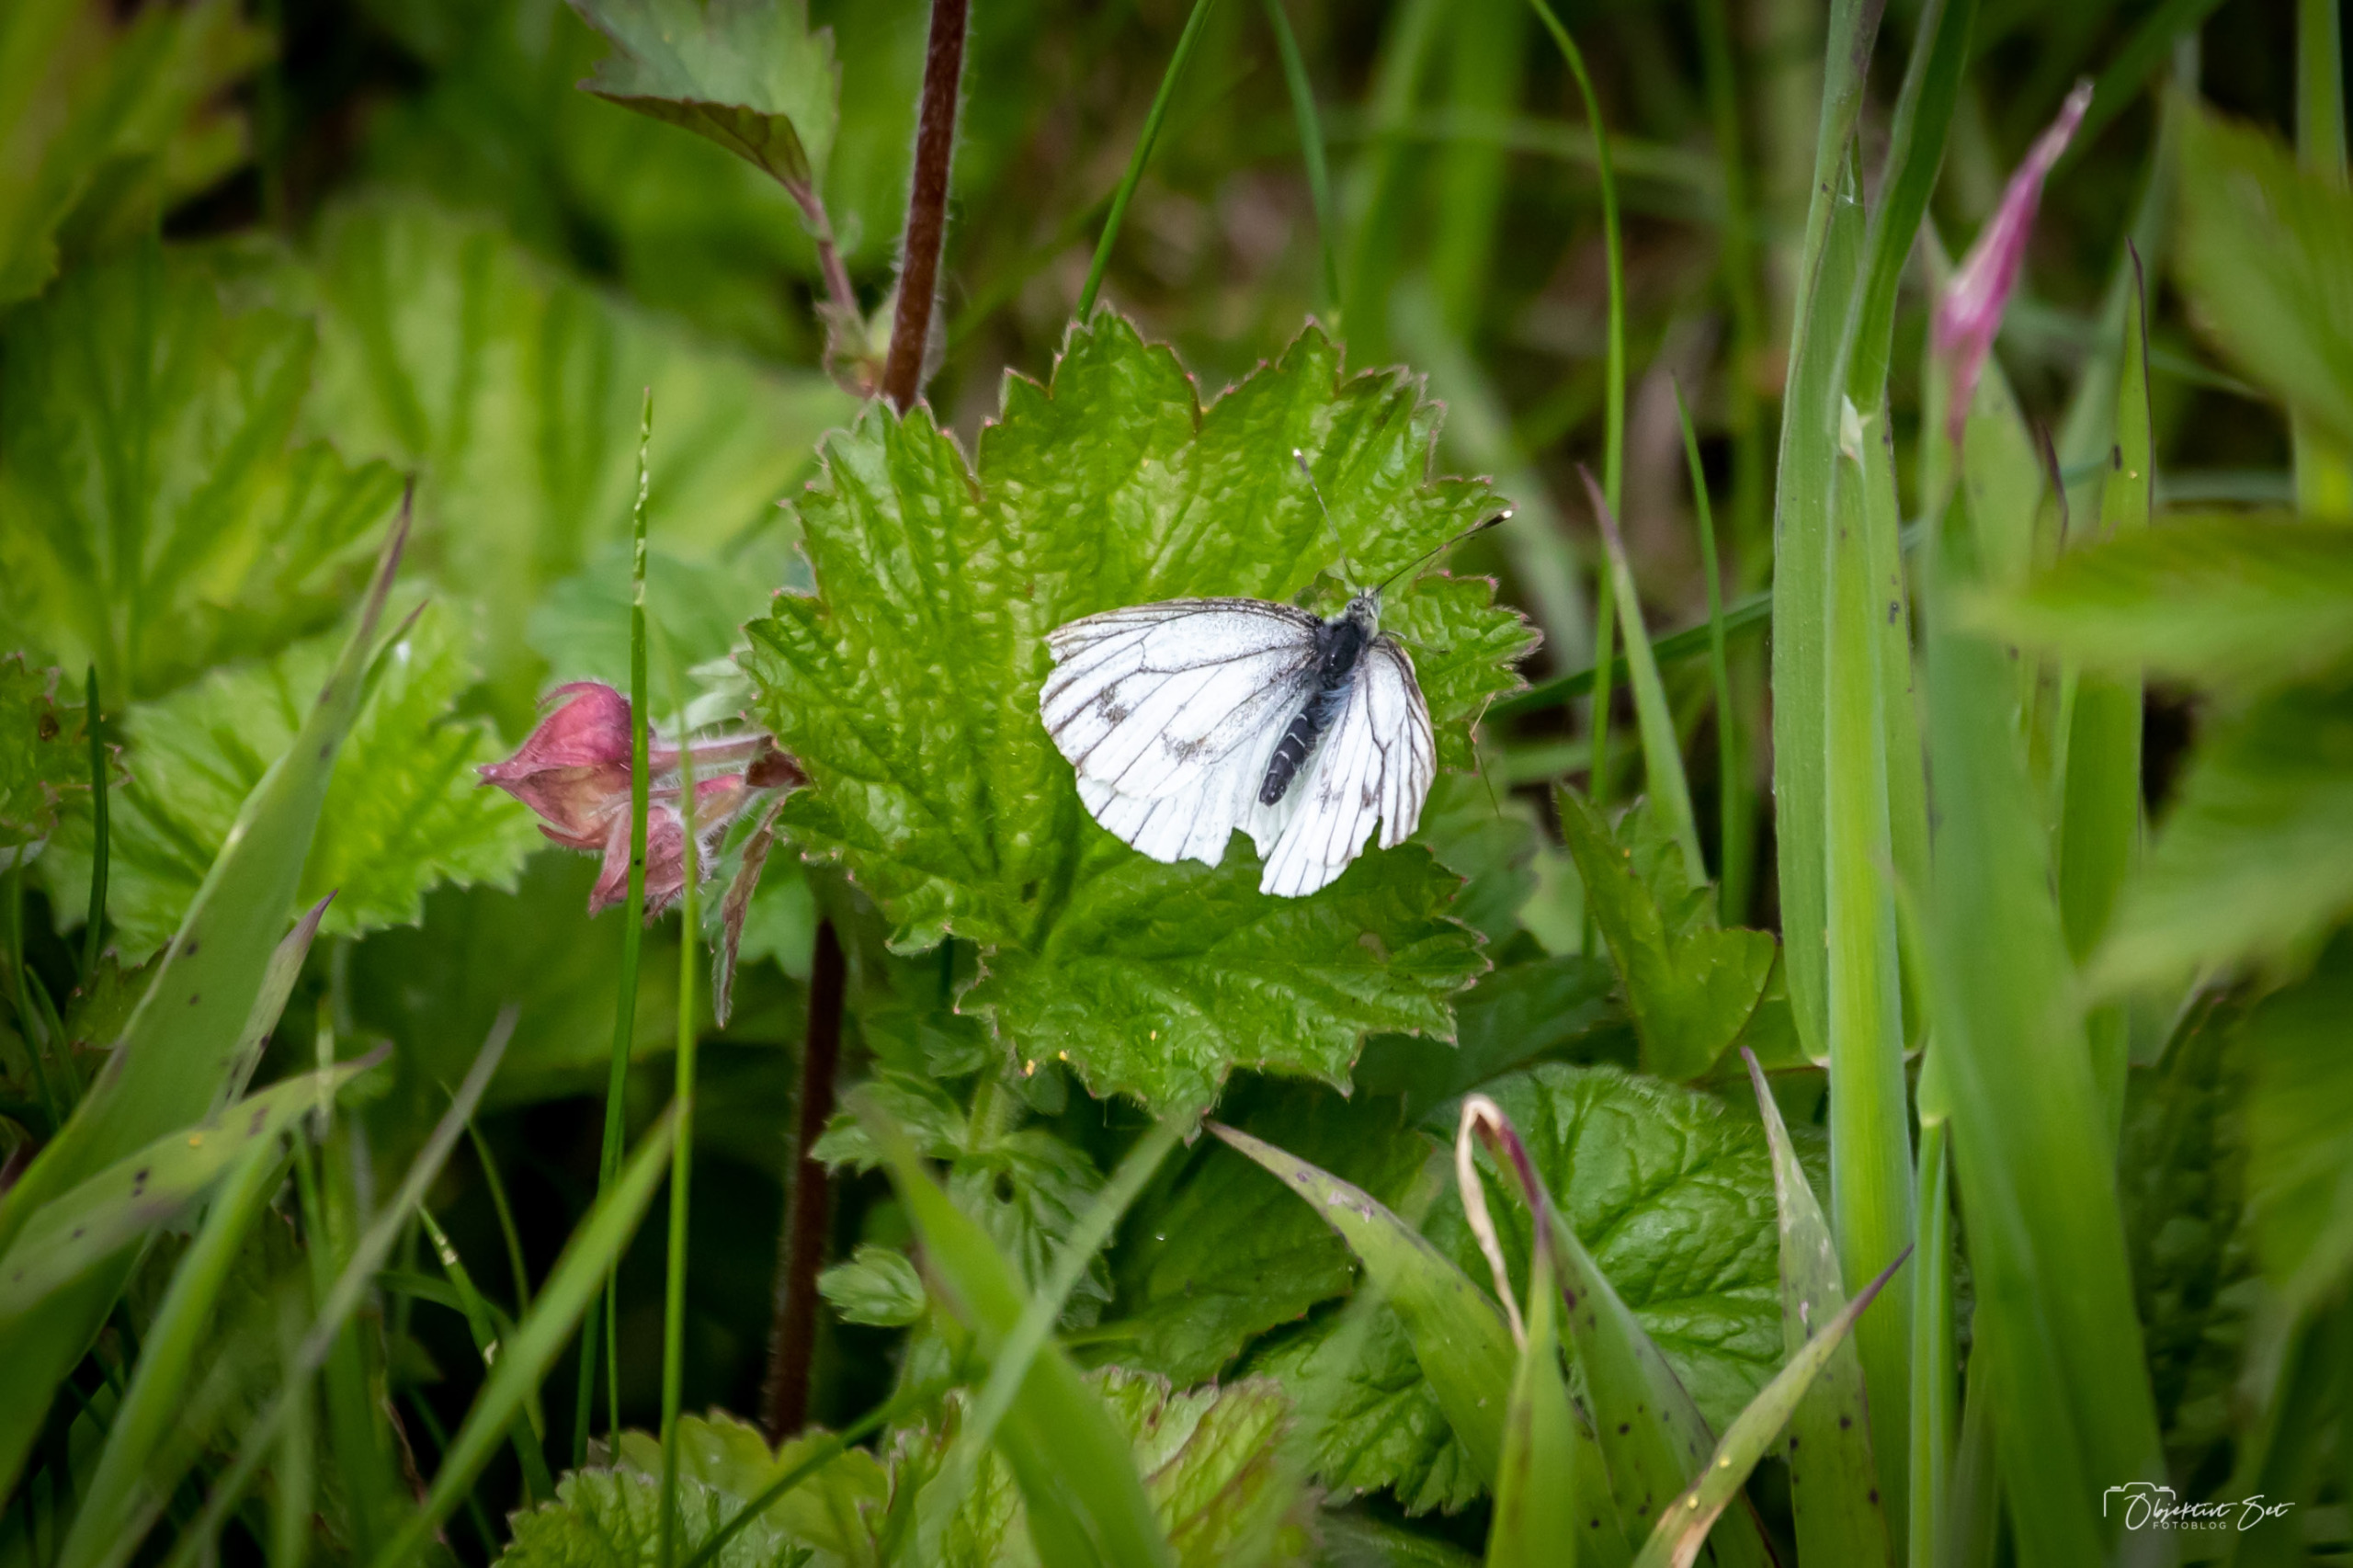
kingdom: Animalia
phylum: Arthropoda
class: Insecta
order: Lepidoptera
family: Pieridae
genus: Pieris
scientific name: Pieris napi
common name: Grønåret kålsommerfugl
